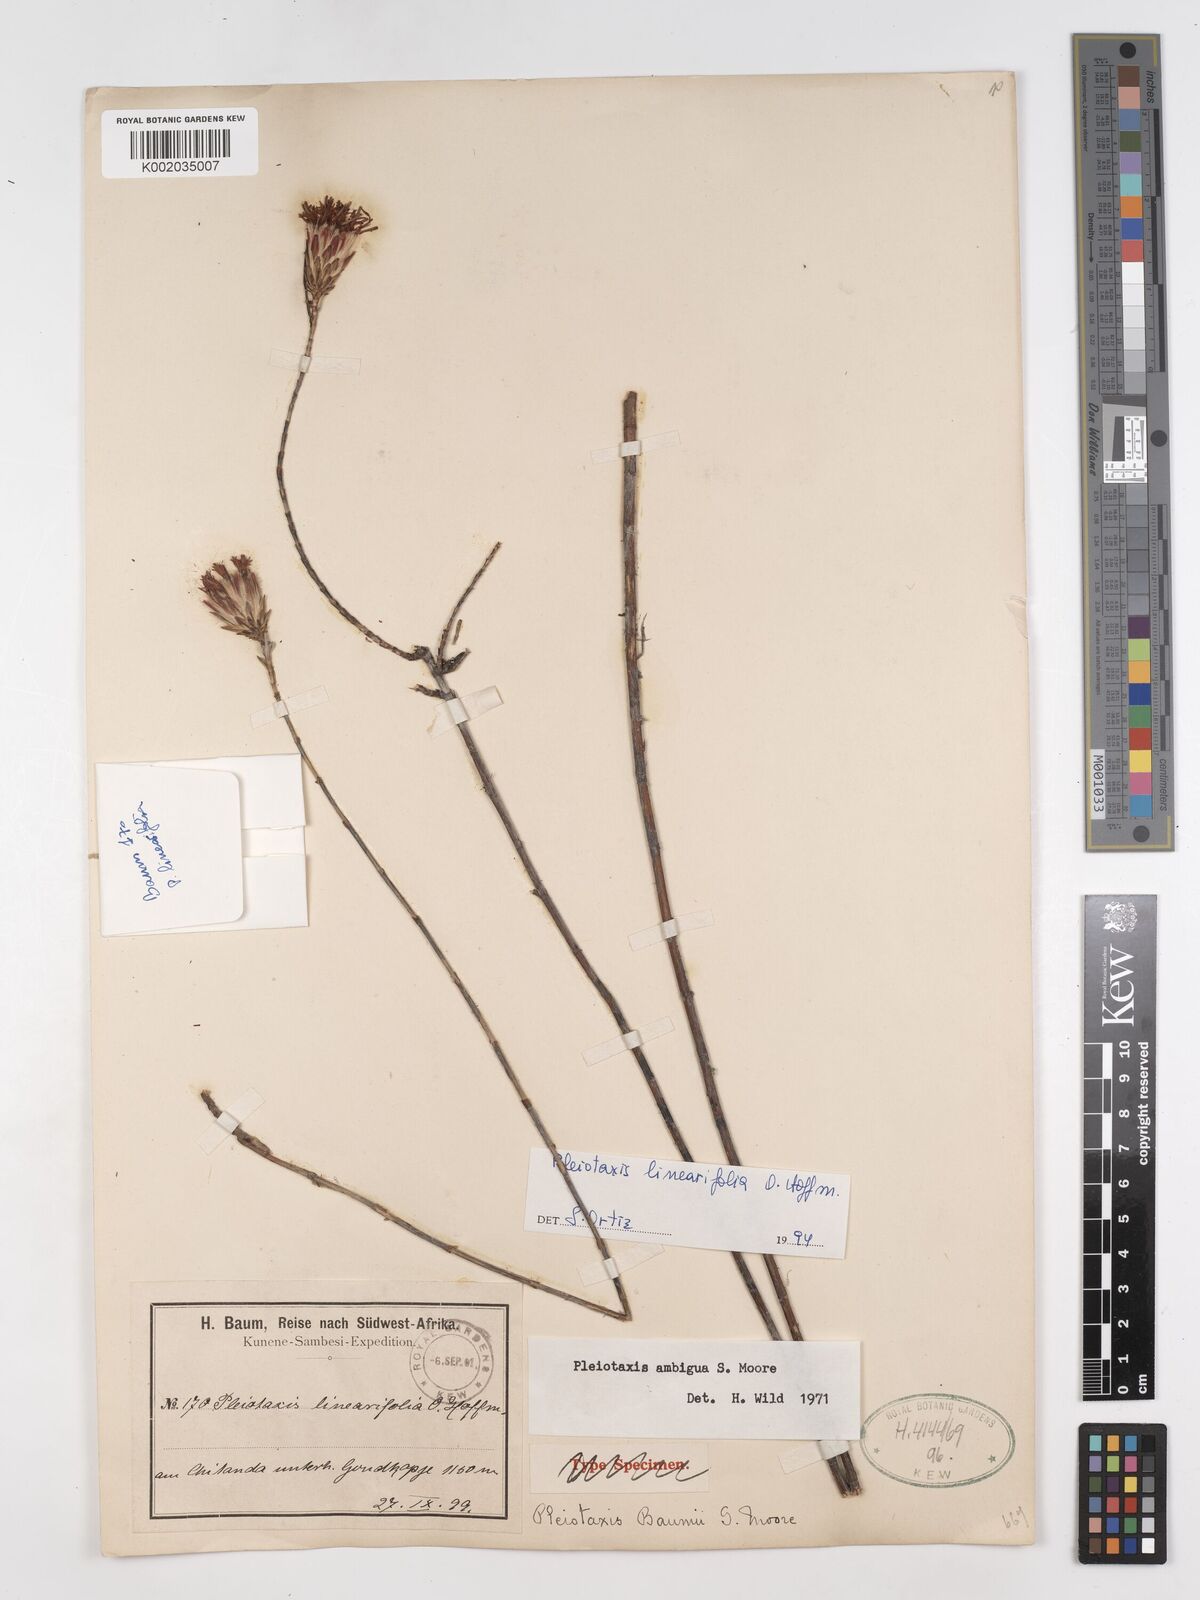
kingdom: Plantae
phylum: Tracheophyta
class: Magnoliopsida
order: Asterales
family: Asteraceae
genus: Pleiotaxis
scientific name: Pleiotaxis linearifolia
